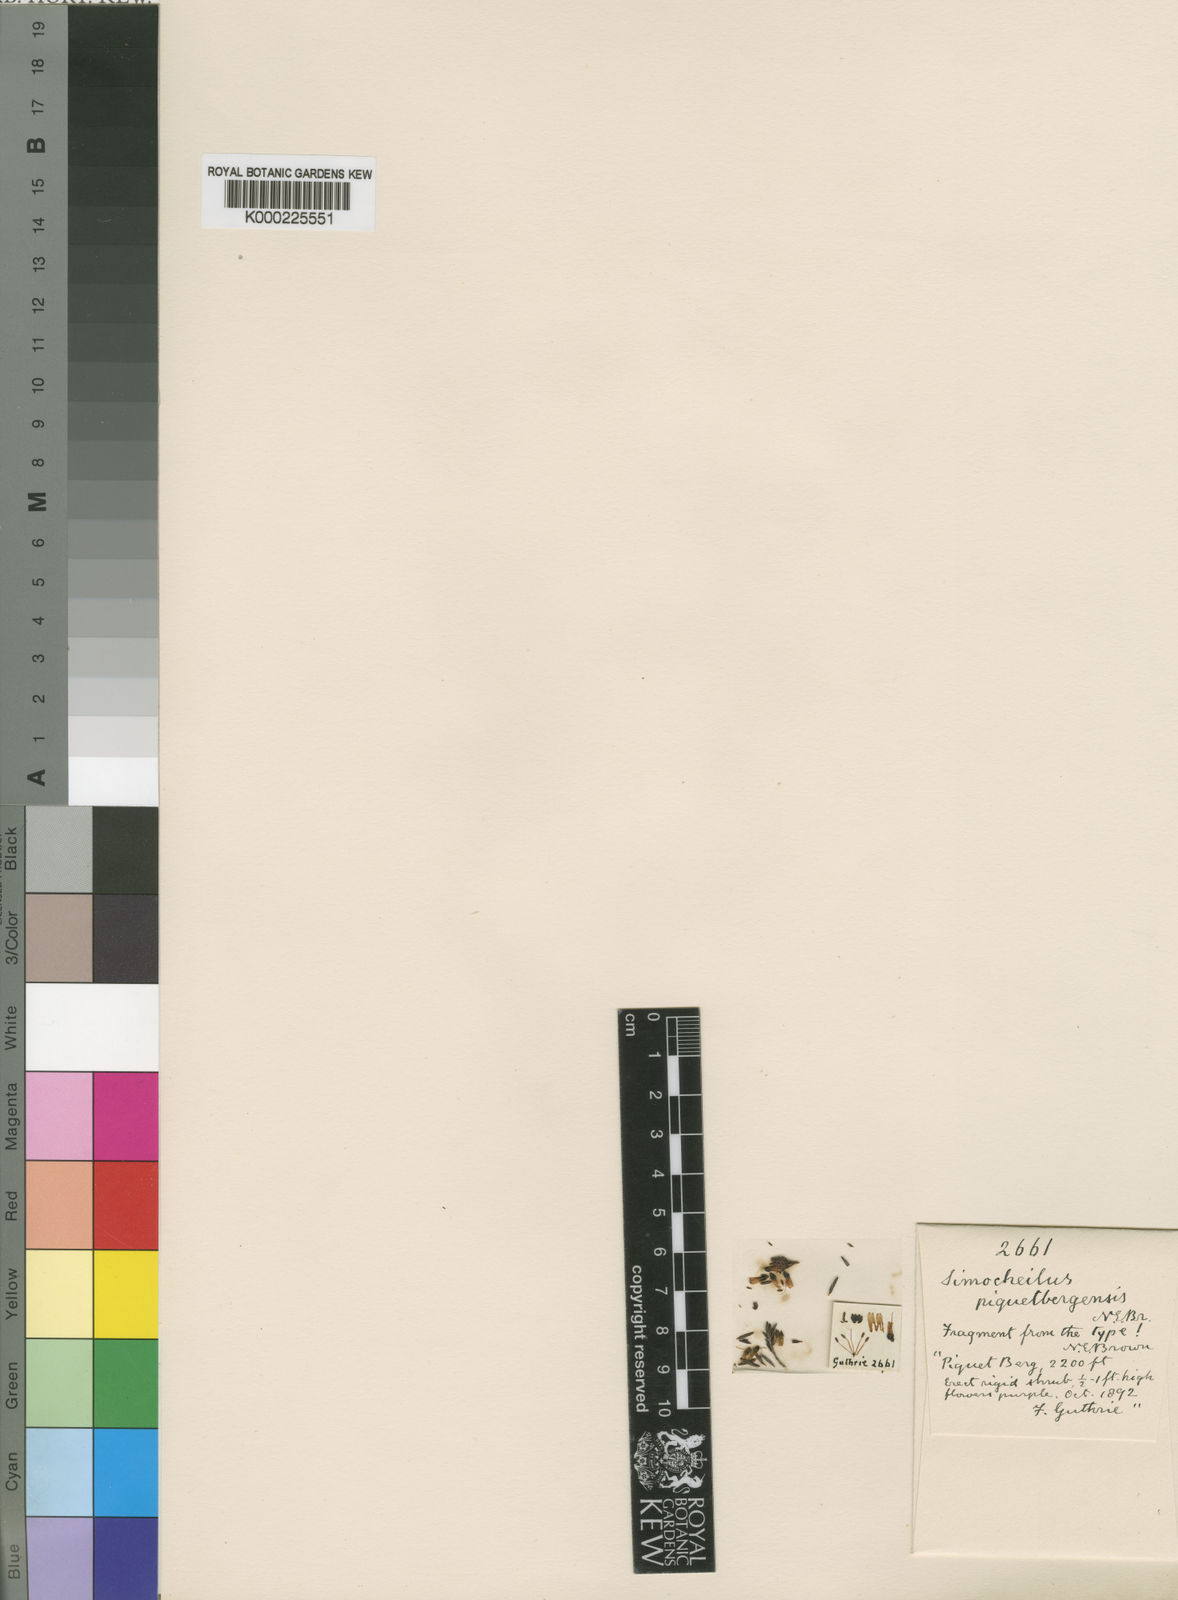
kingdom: Plantae
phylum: Tracheophyta
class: Magnoliopsida
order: Ericales
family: Ericaceae
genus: Erica
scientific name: Erica piquetbergensis
